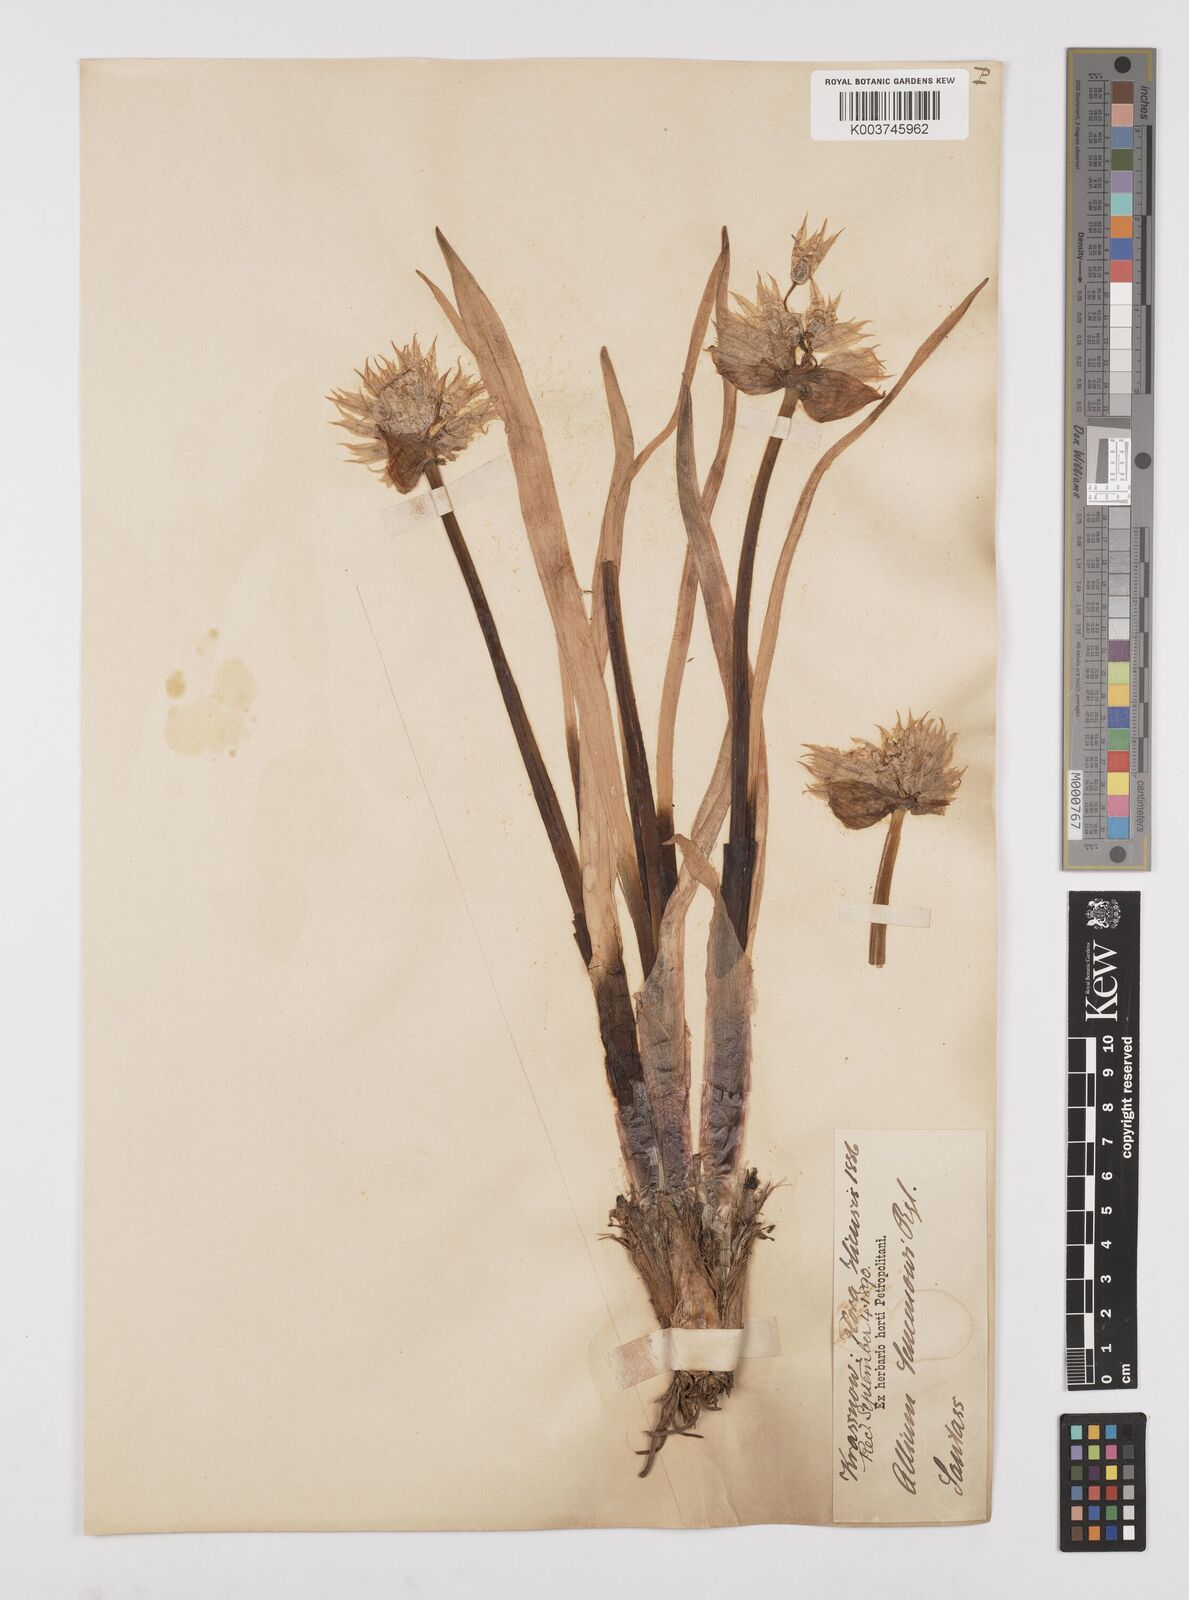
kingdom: Plantae
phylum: Tracheophyta
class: Liliopsida
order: Asparagales
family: Amaryllidaceae
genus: Allium
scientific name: Allium semenovii
